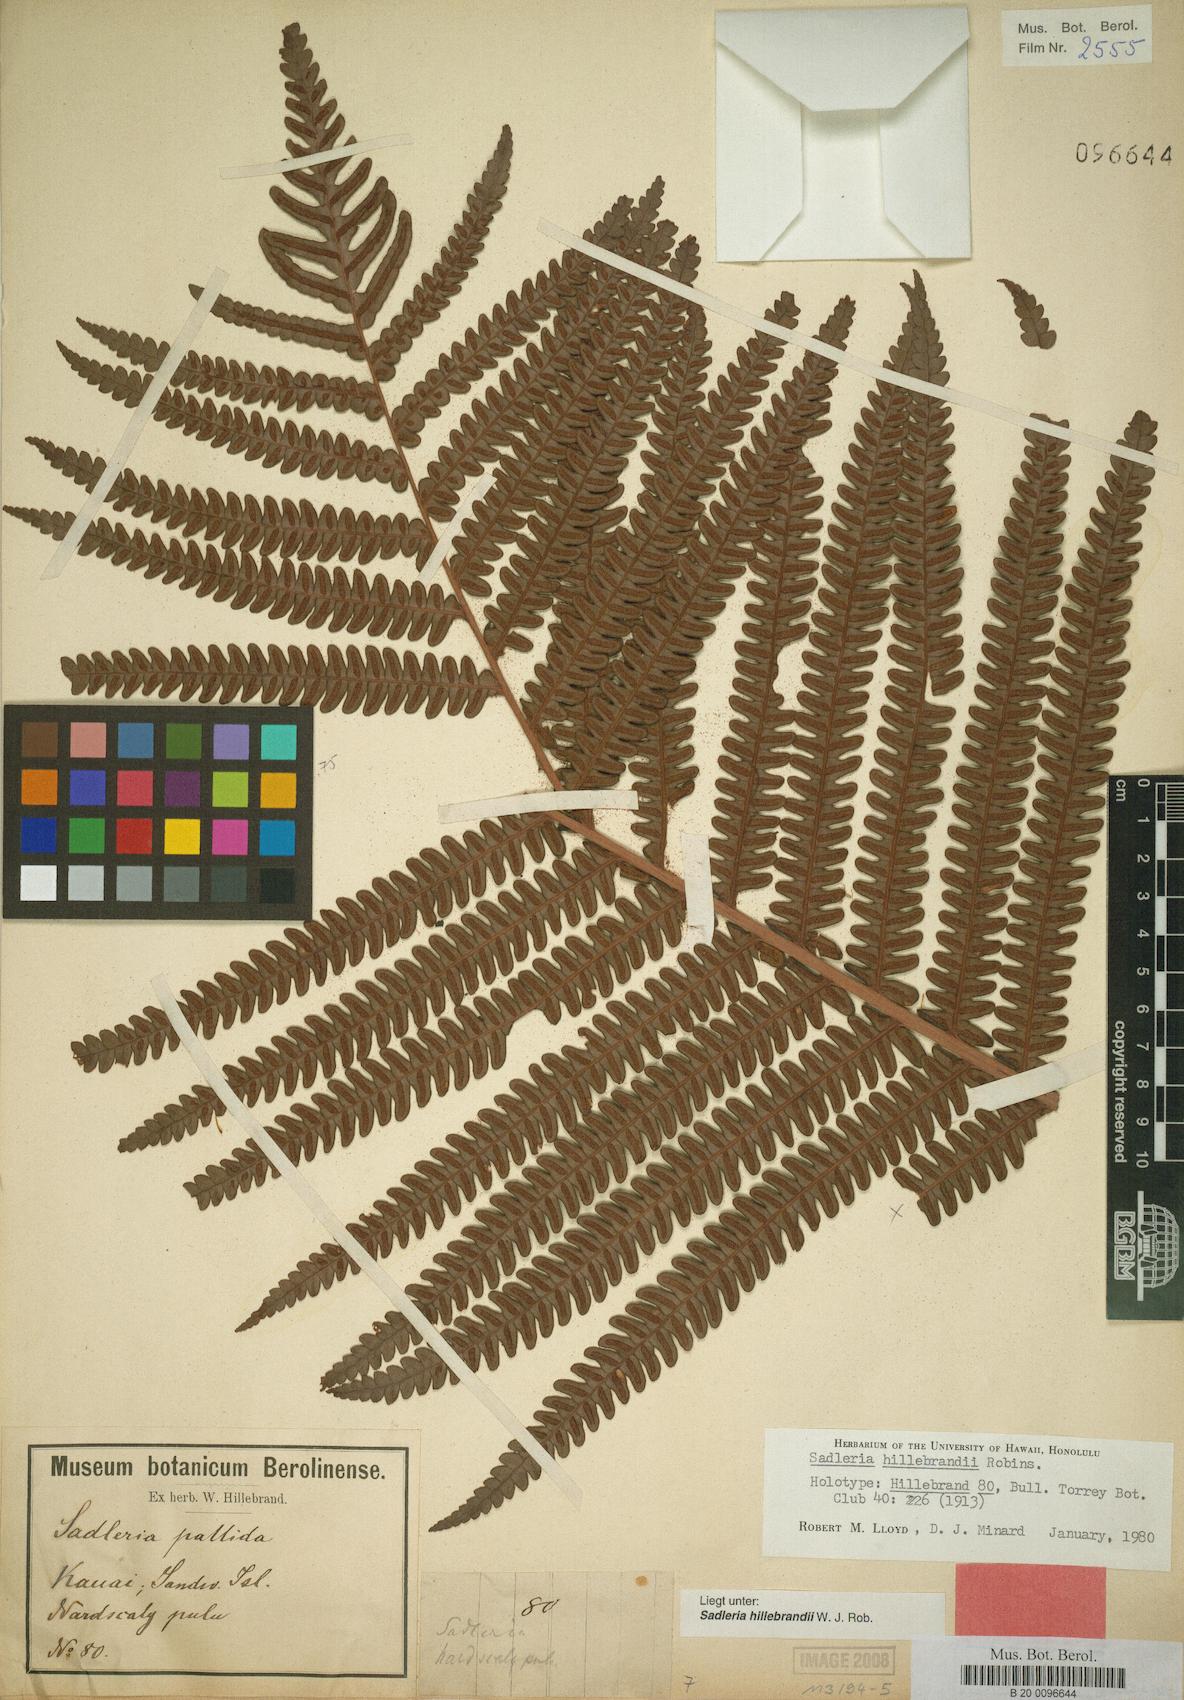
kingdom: Plantae
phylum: Tracheophyta
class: Polypodiopsida
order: Polypodiales
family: Blechnaceae
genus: Sadleria
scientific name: Sadleria pallida
